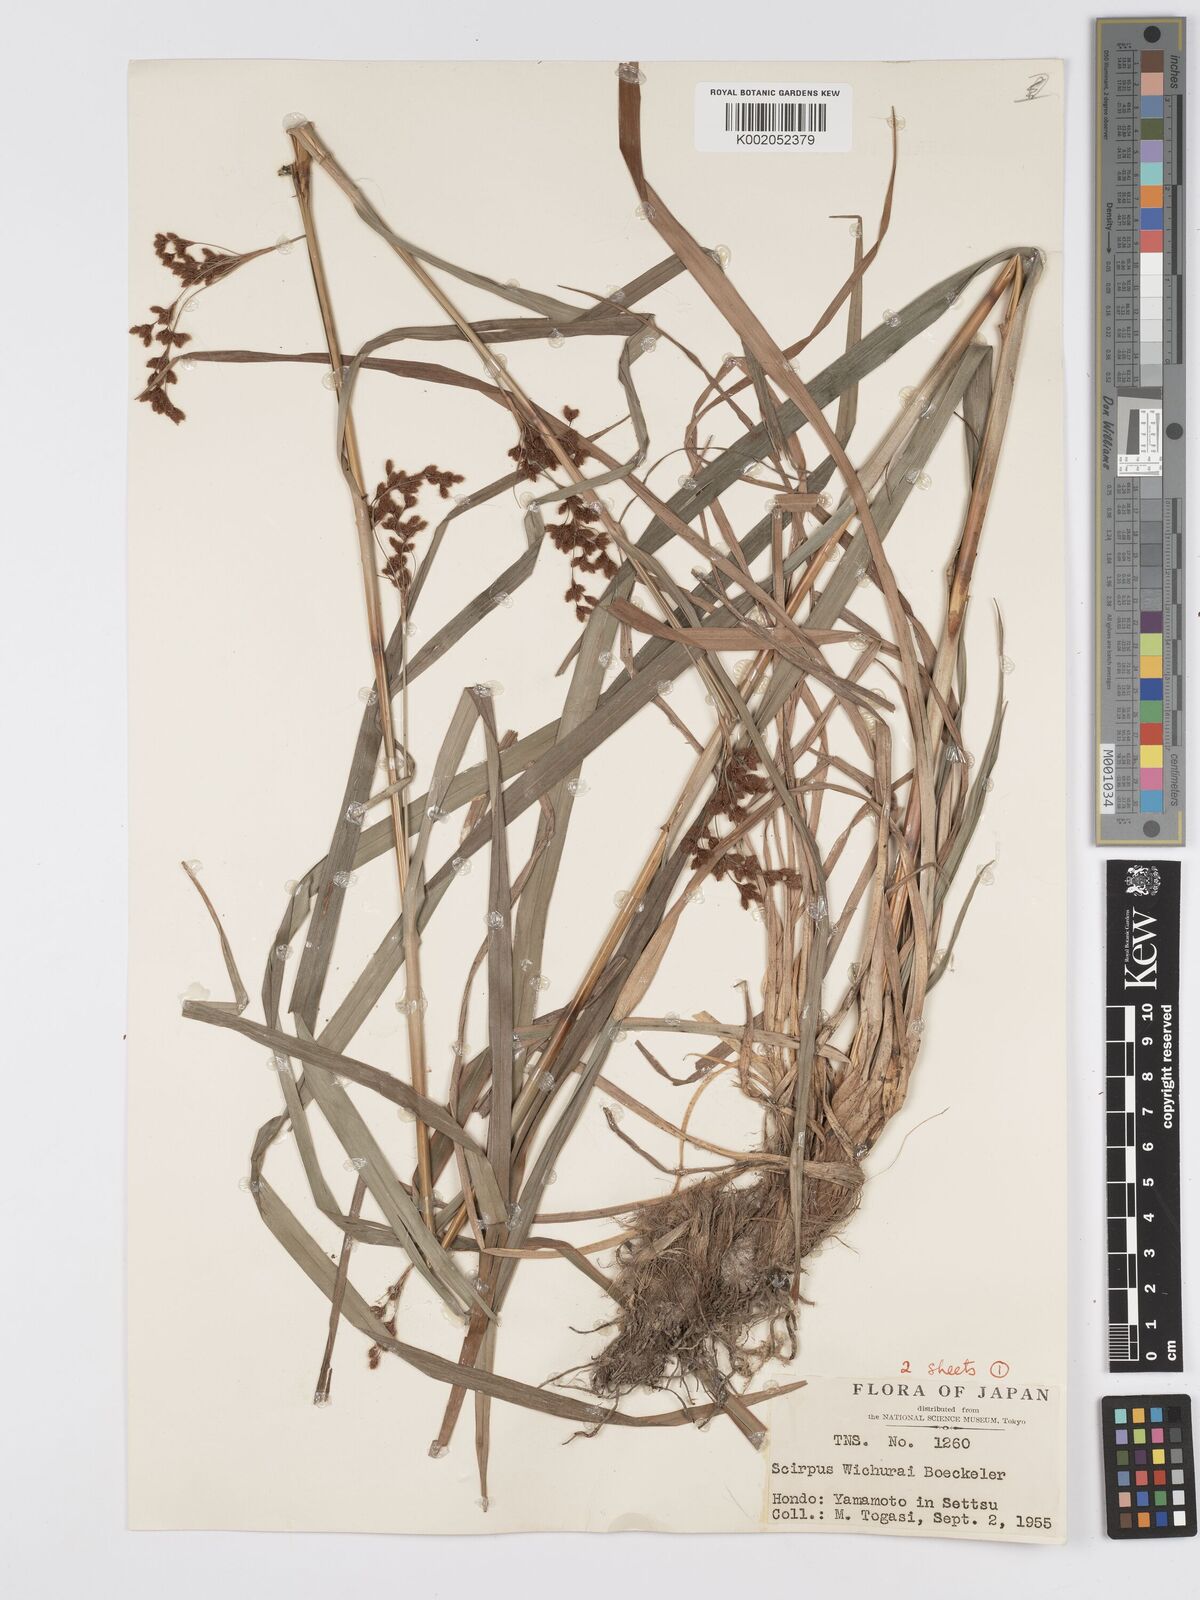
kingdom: Plantae
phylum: Tracheophyta
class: Liliopsida
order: Poales
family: Cyperaceae
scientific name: Cyperaceae
